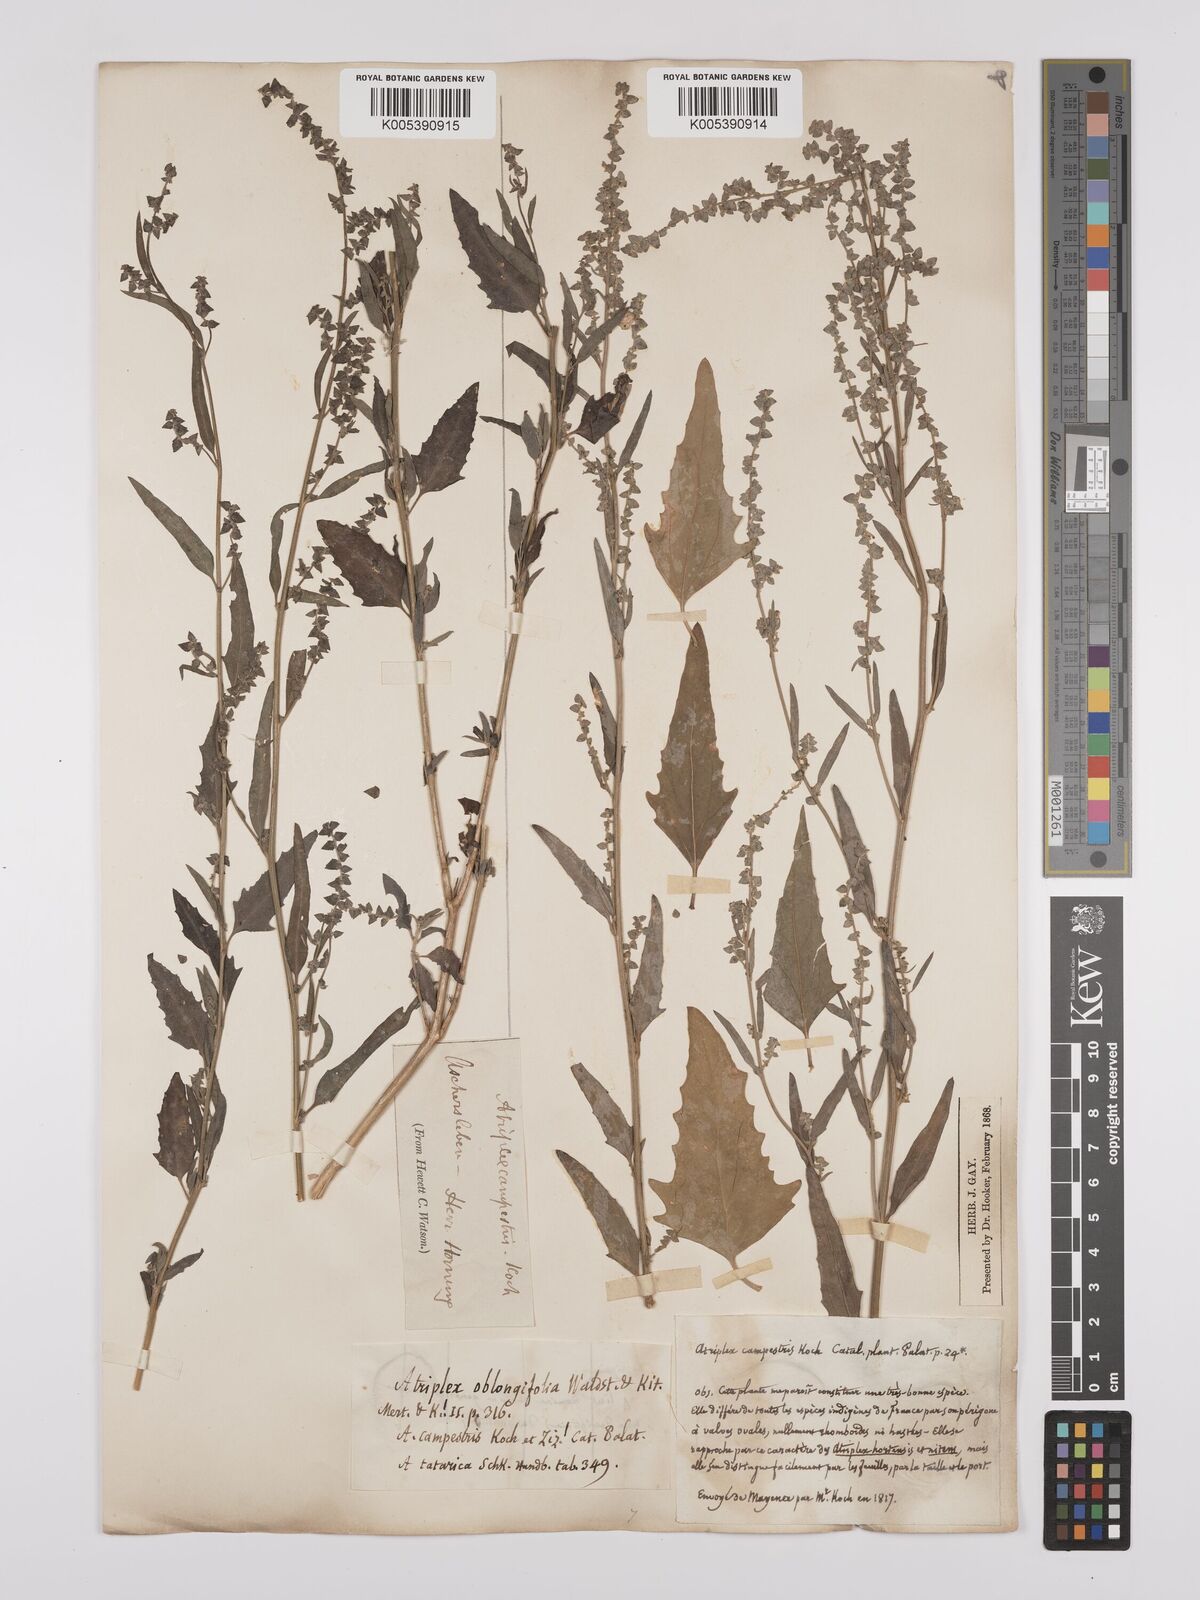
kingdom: Plantae
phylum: Tracheophyta
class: Magnoliopsida
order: Caryophyllales
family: Amaranthaceae
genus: Atriplex
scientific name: Atriplex
